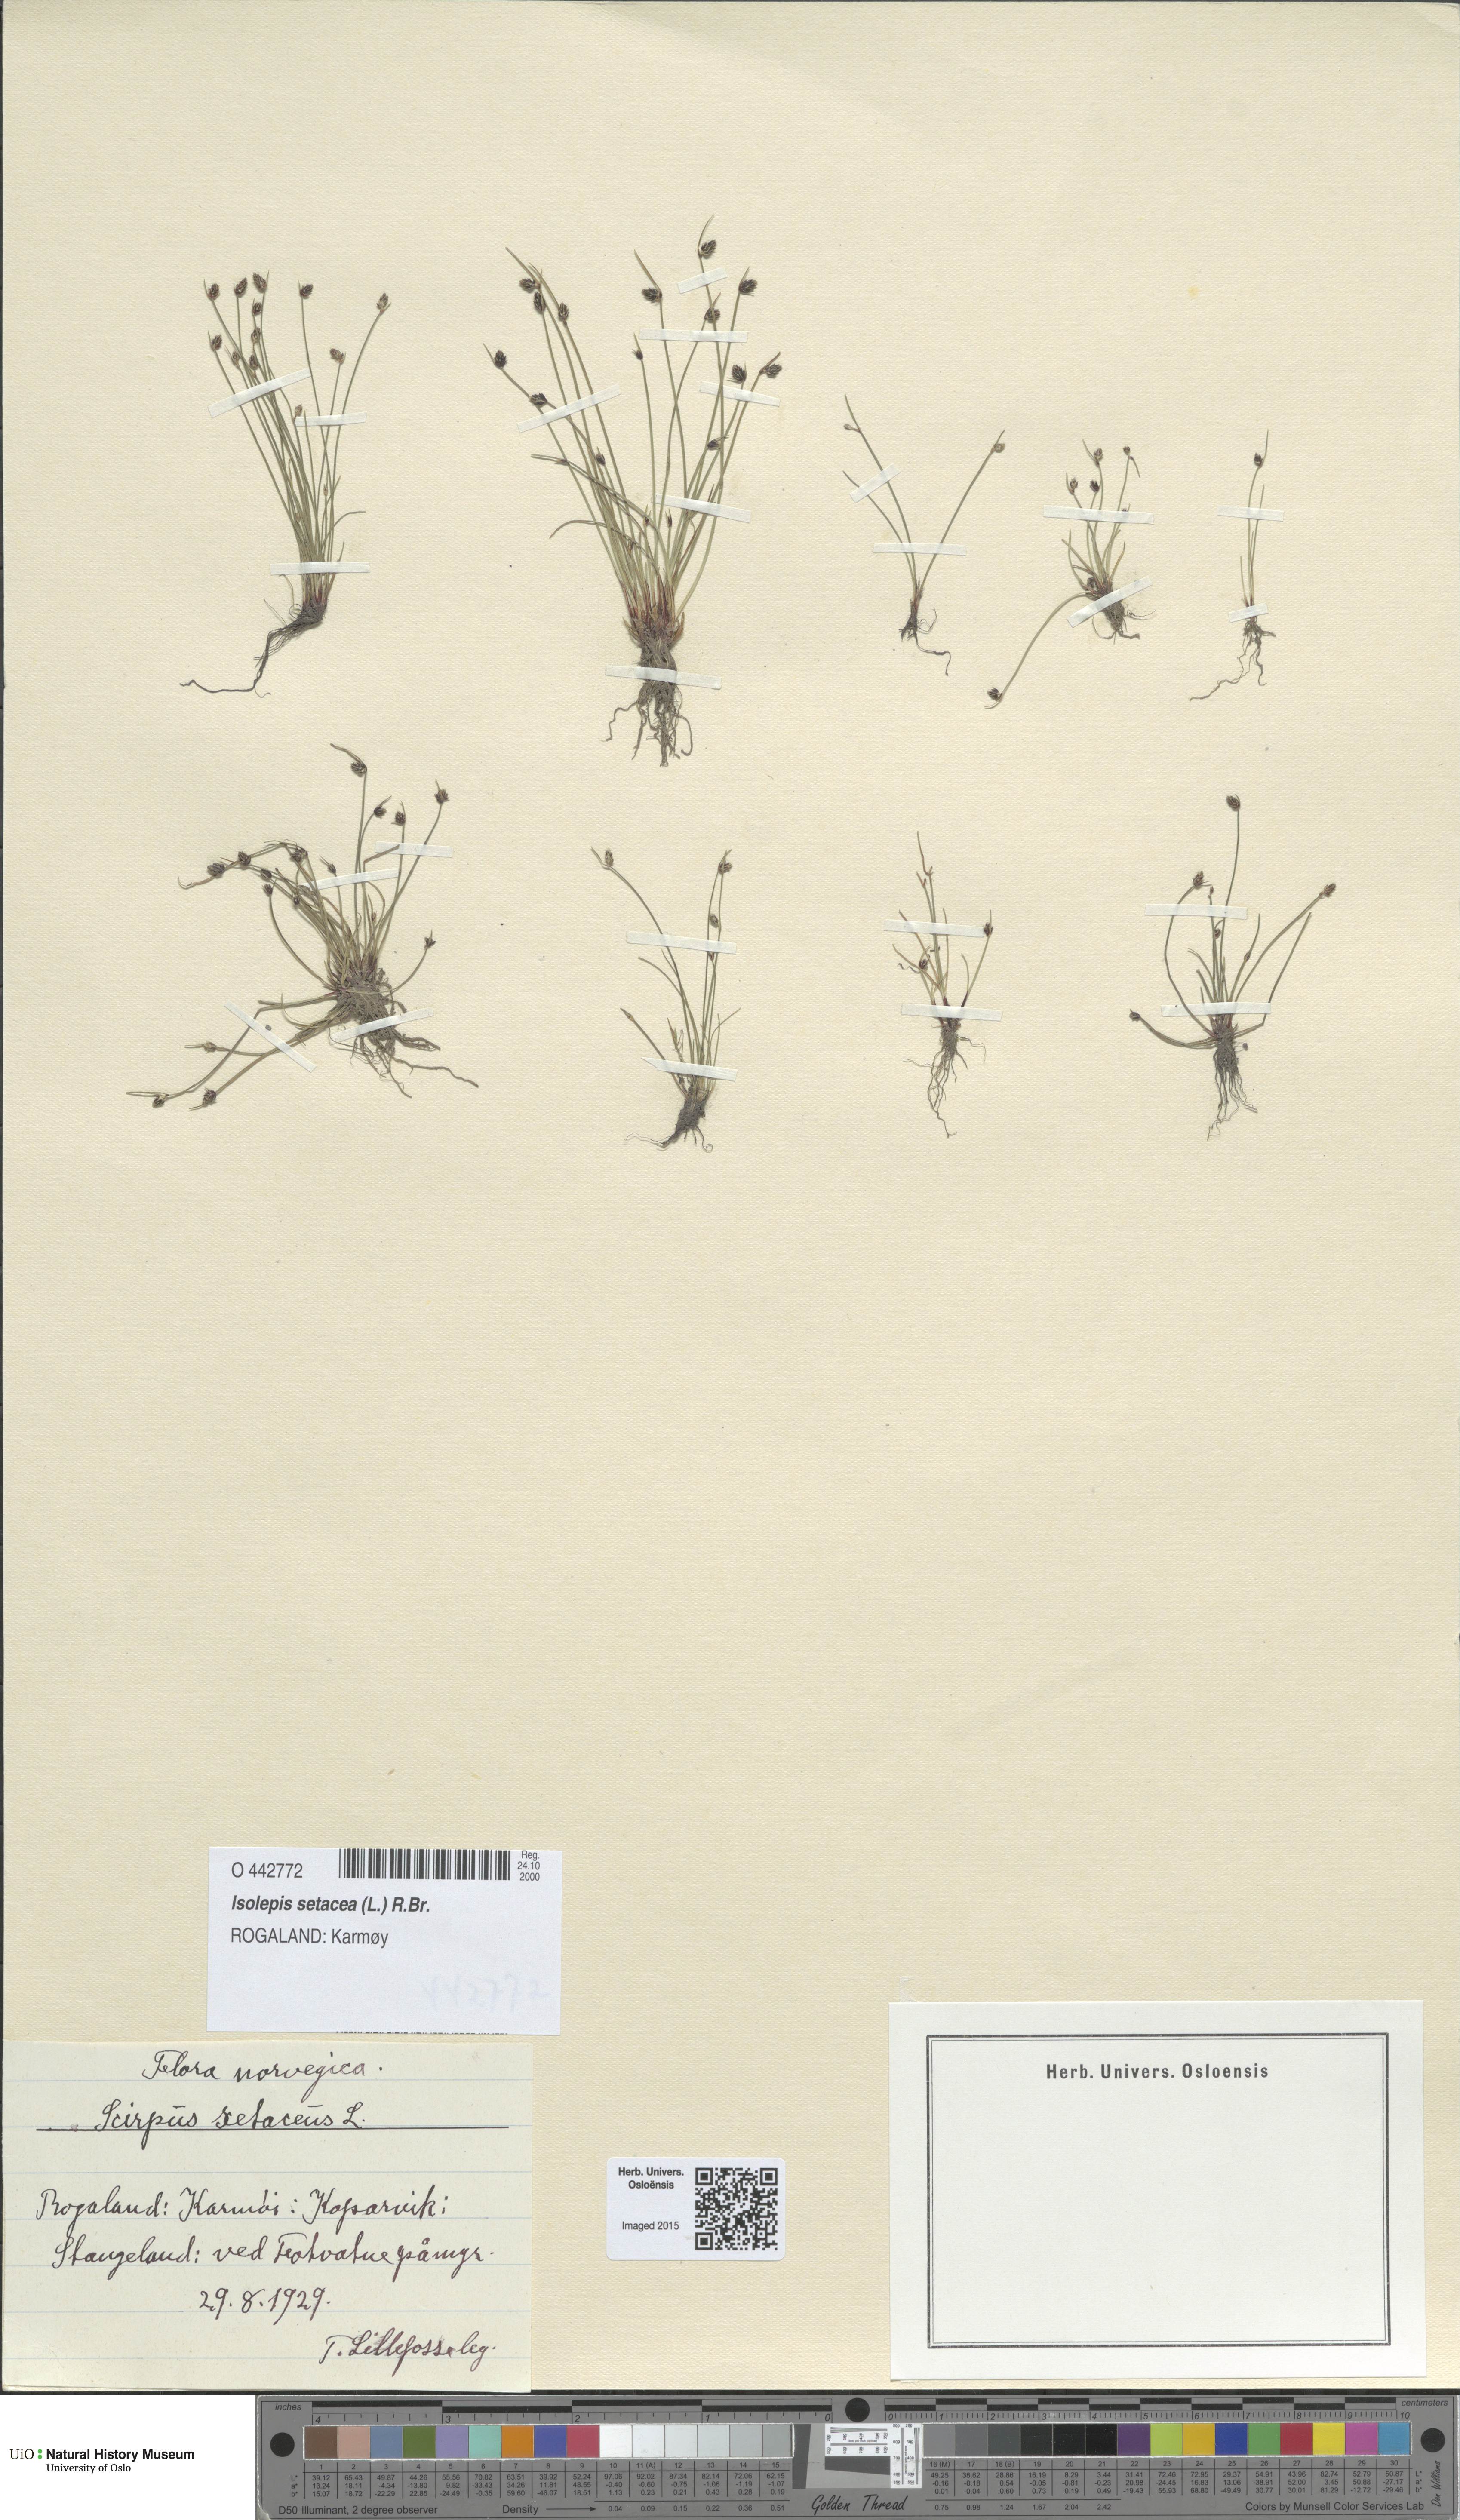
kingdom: Plantae
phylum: Tracheophyta
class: Liliopsida
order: Poales
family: Cyperaceae
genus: Isolepis
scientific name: Isolepis setacea
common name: Bristle club-rush
